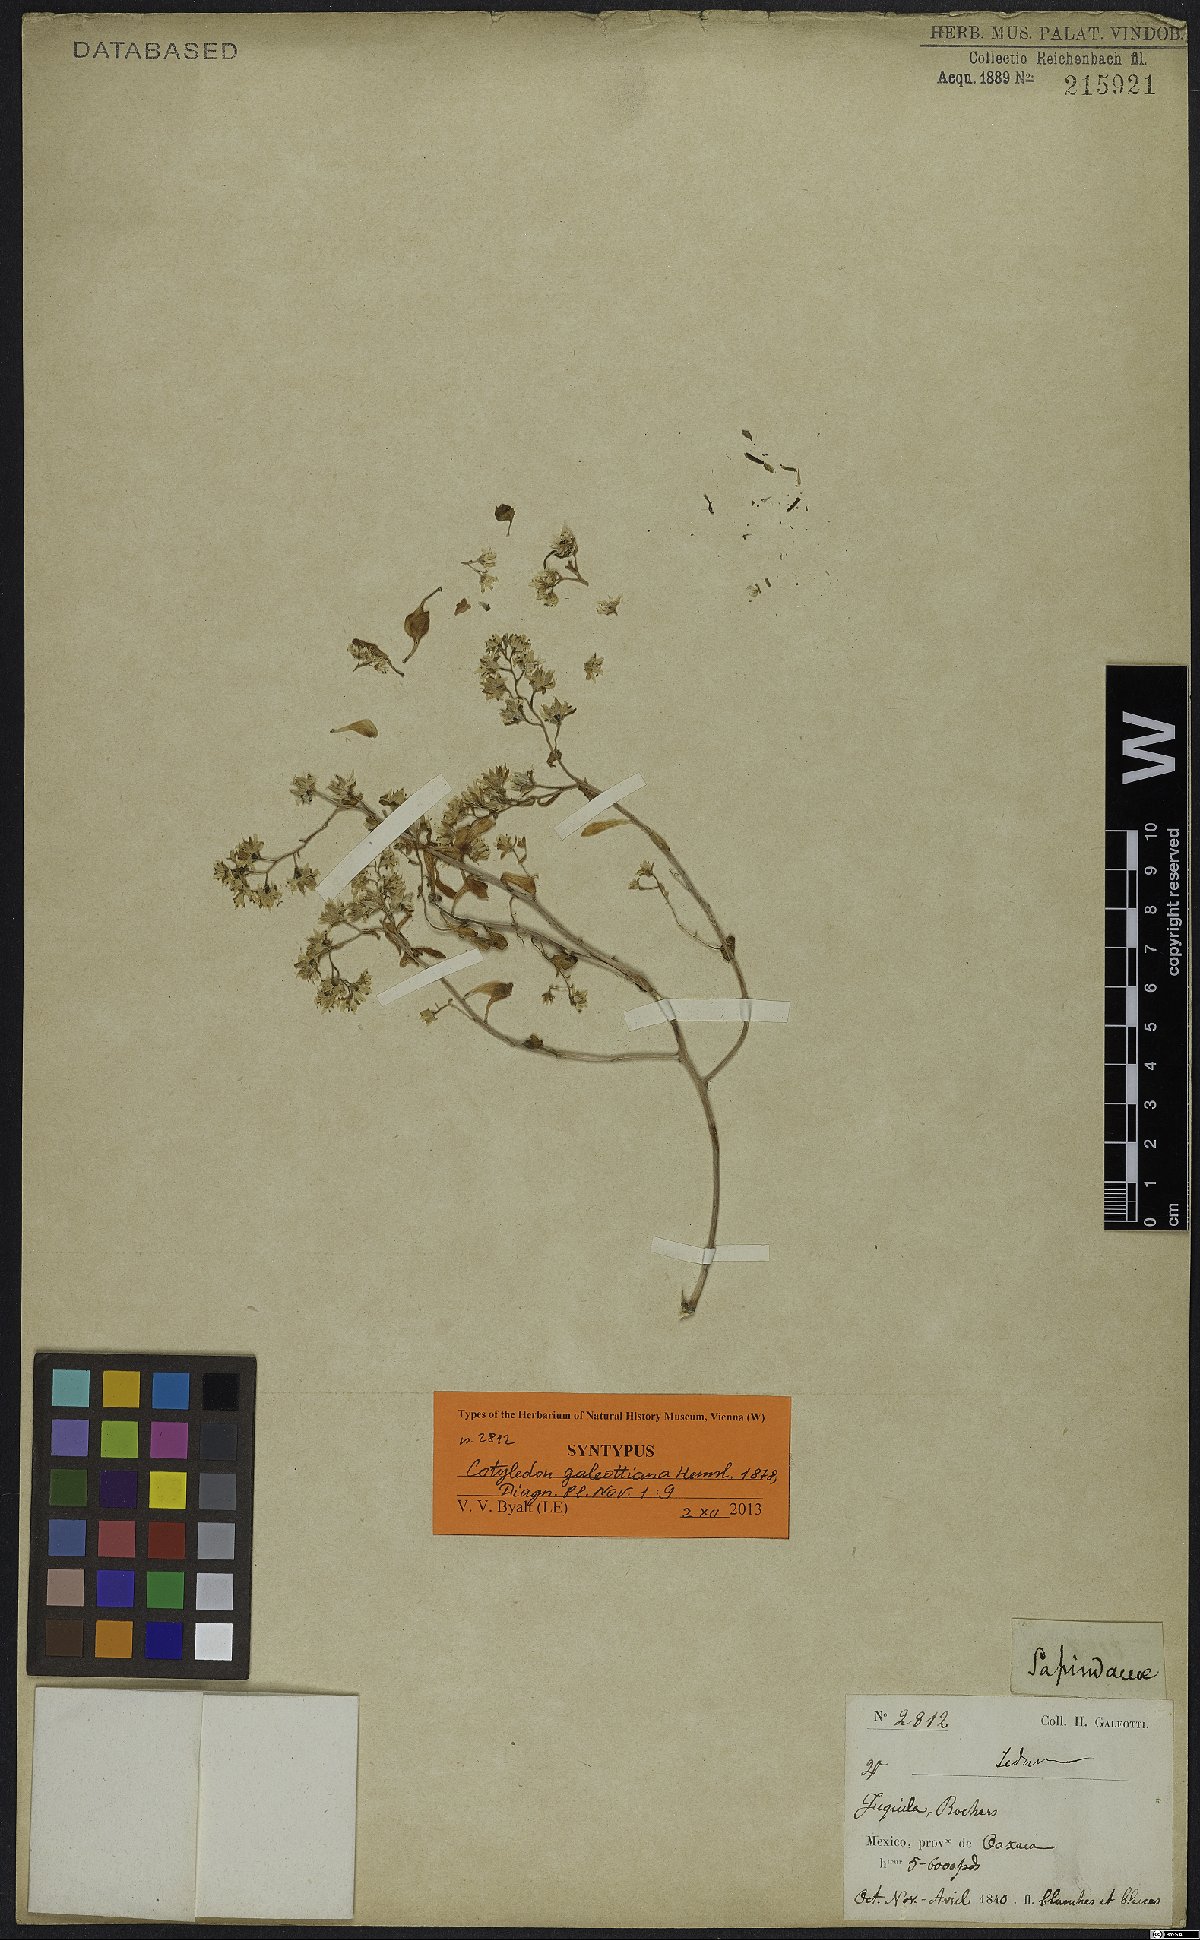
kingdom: Plantae
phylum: Tracheophyta
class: Magnoliopsida
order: Saxifragales
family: Crassulaceae
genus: Sedum
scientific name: Sedum batesii
